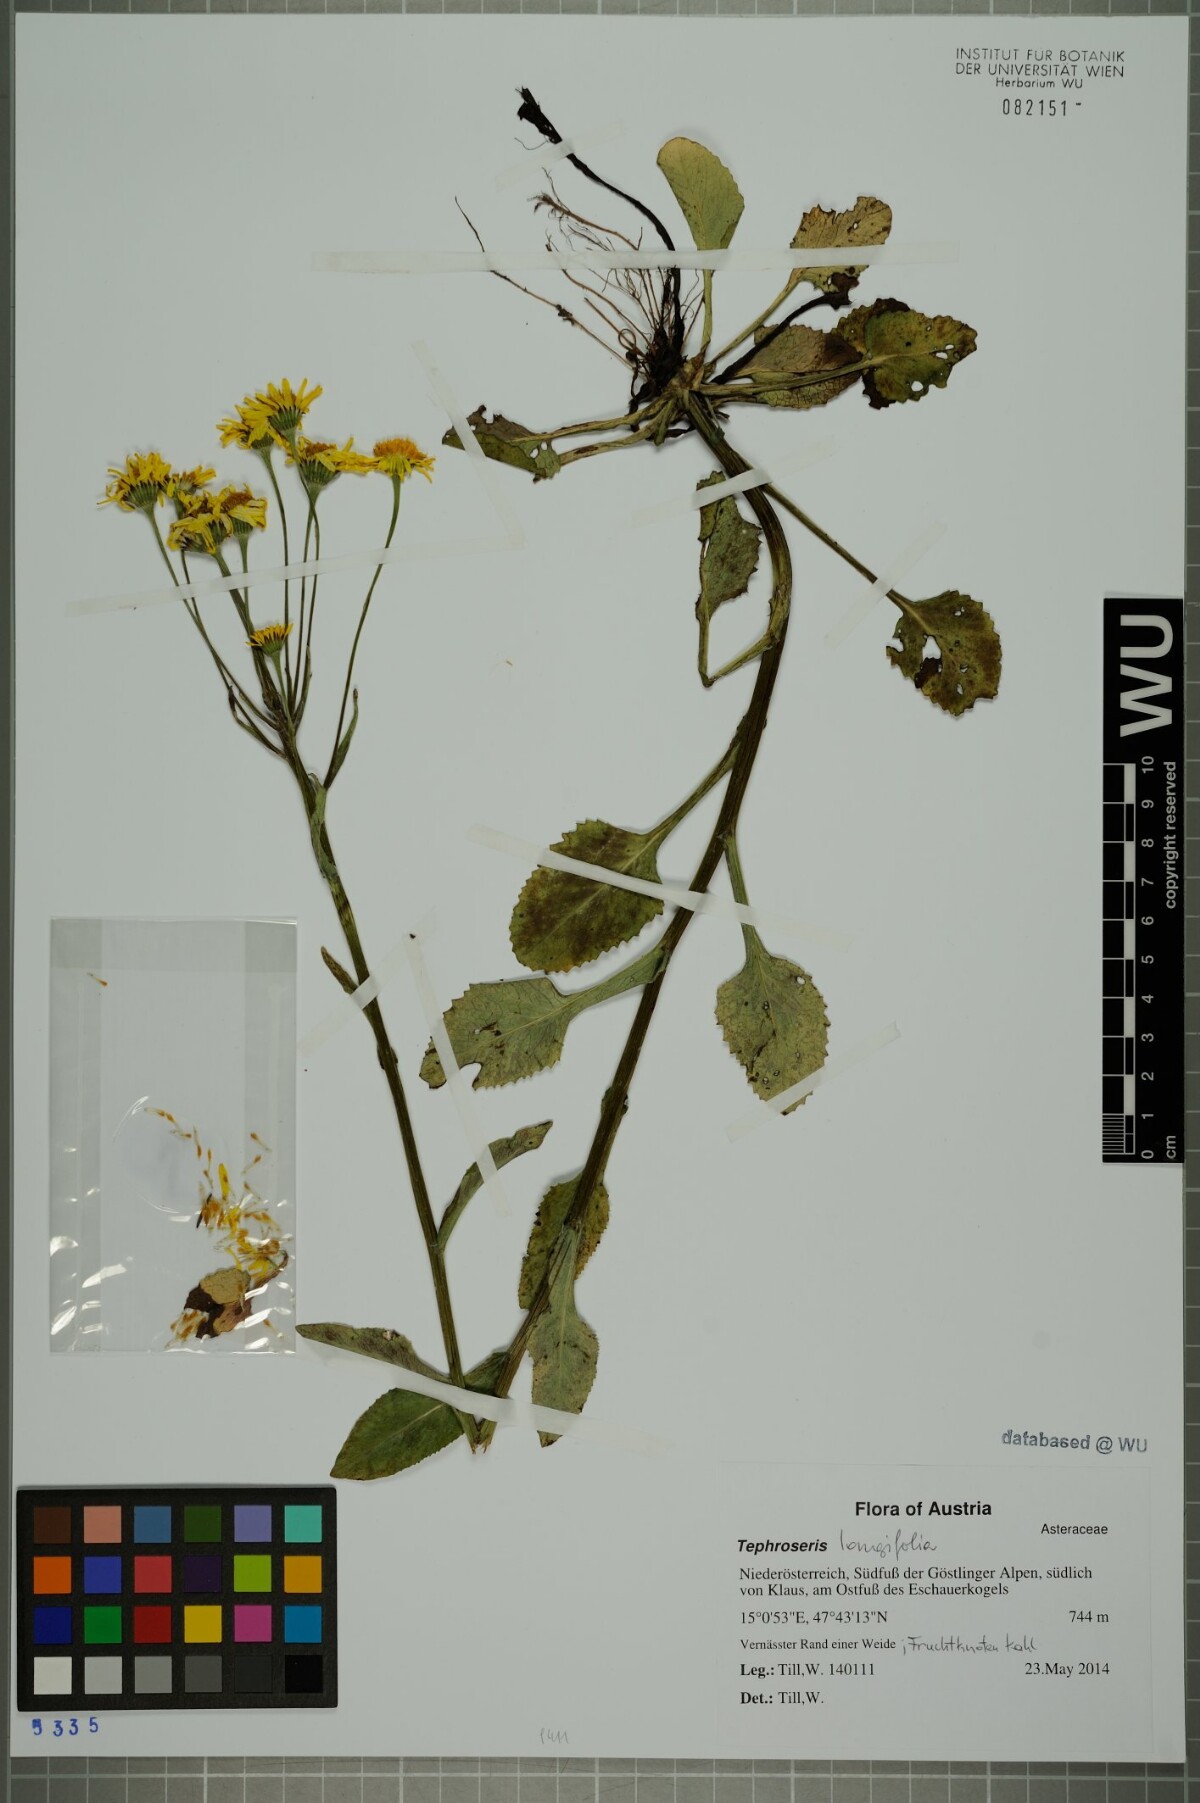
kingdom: Plantae
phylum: Tracheophyta
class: Magnoliopsida
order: Asterales
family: Asteraceae
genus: Tephroseris
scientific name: Tephroseris crispa
